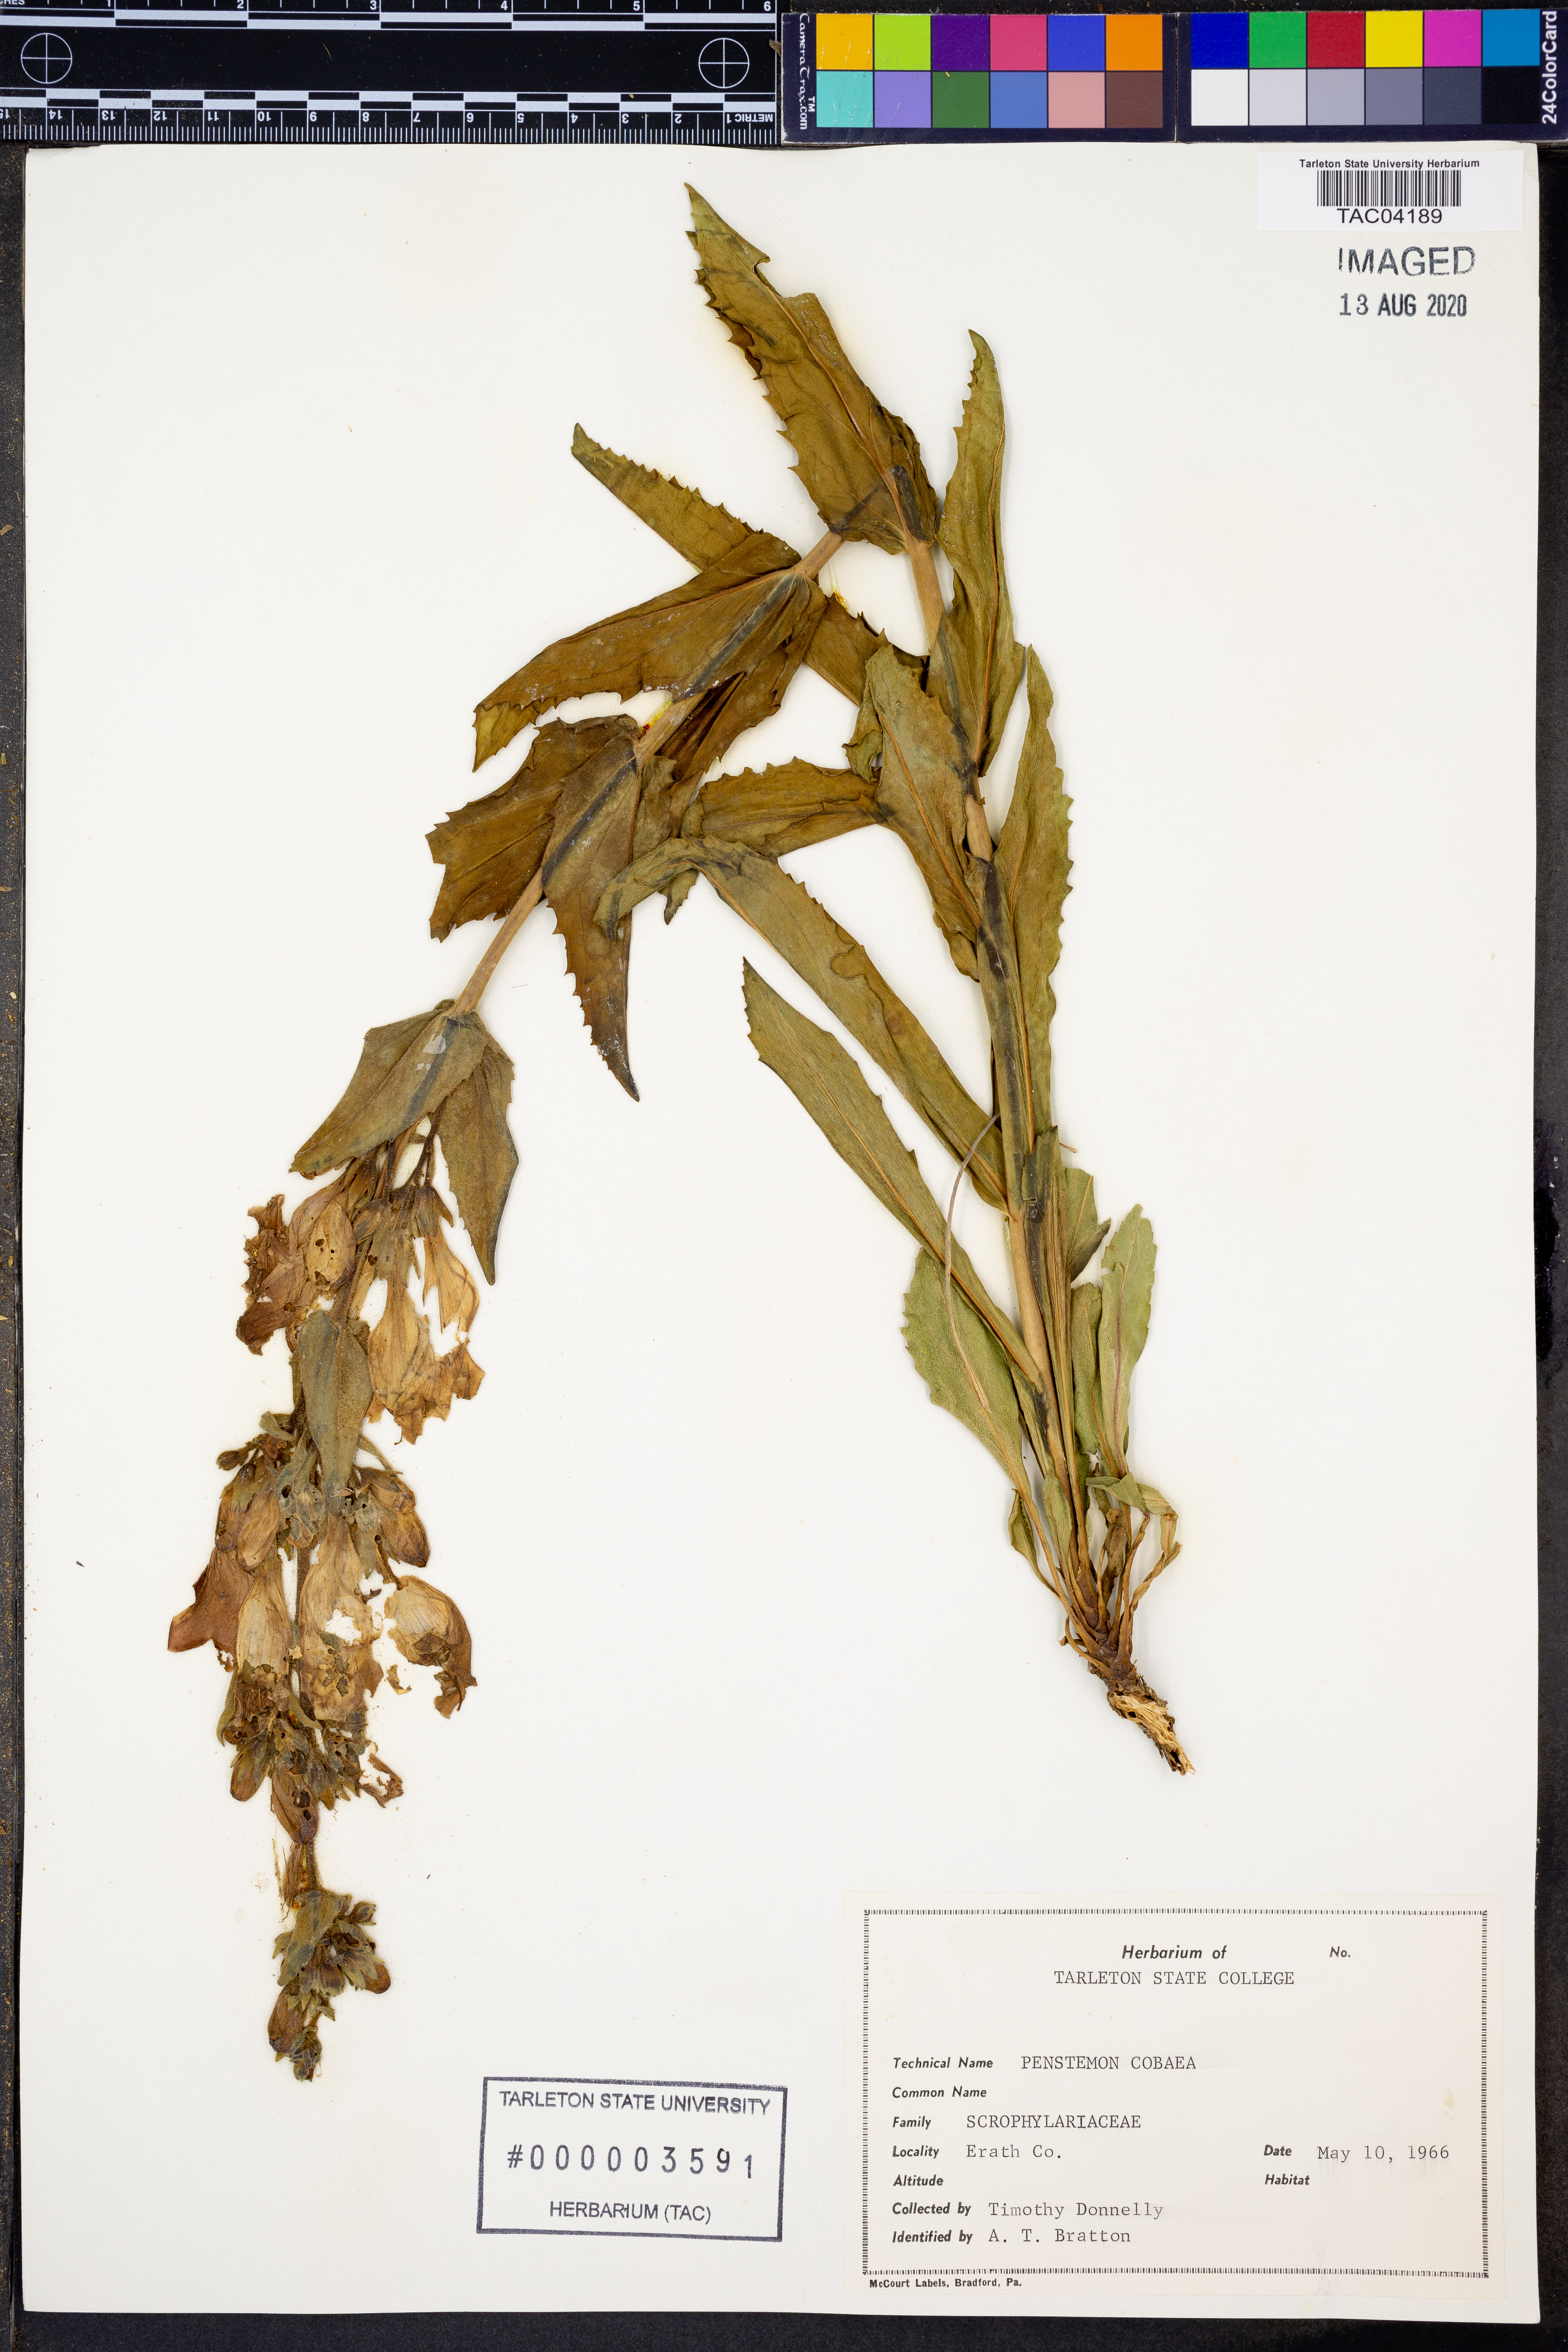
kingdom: Plantae
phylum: Tracheophyta
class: Magnoliopsida
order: Lamiales
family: Plantaginaceae
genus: Penstemon
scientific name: Penstemon cobaea
